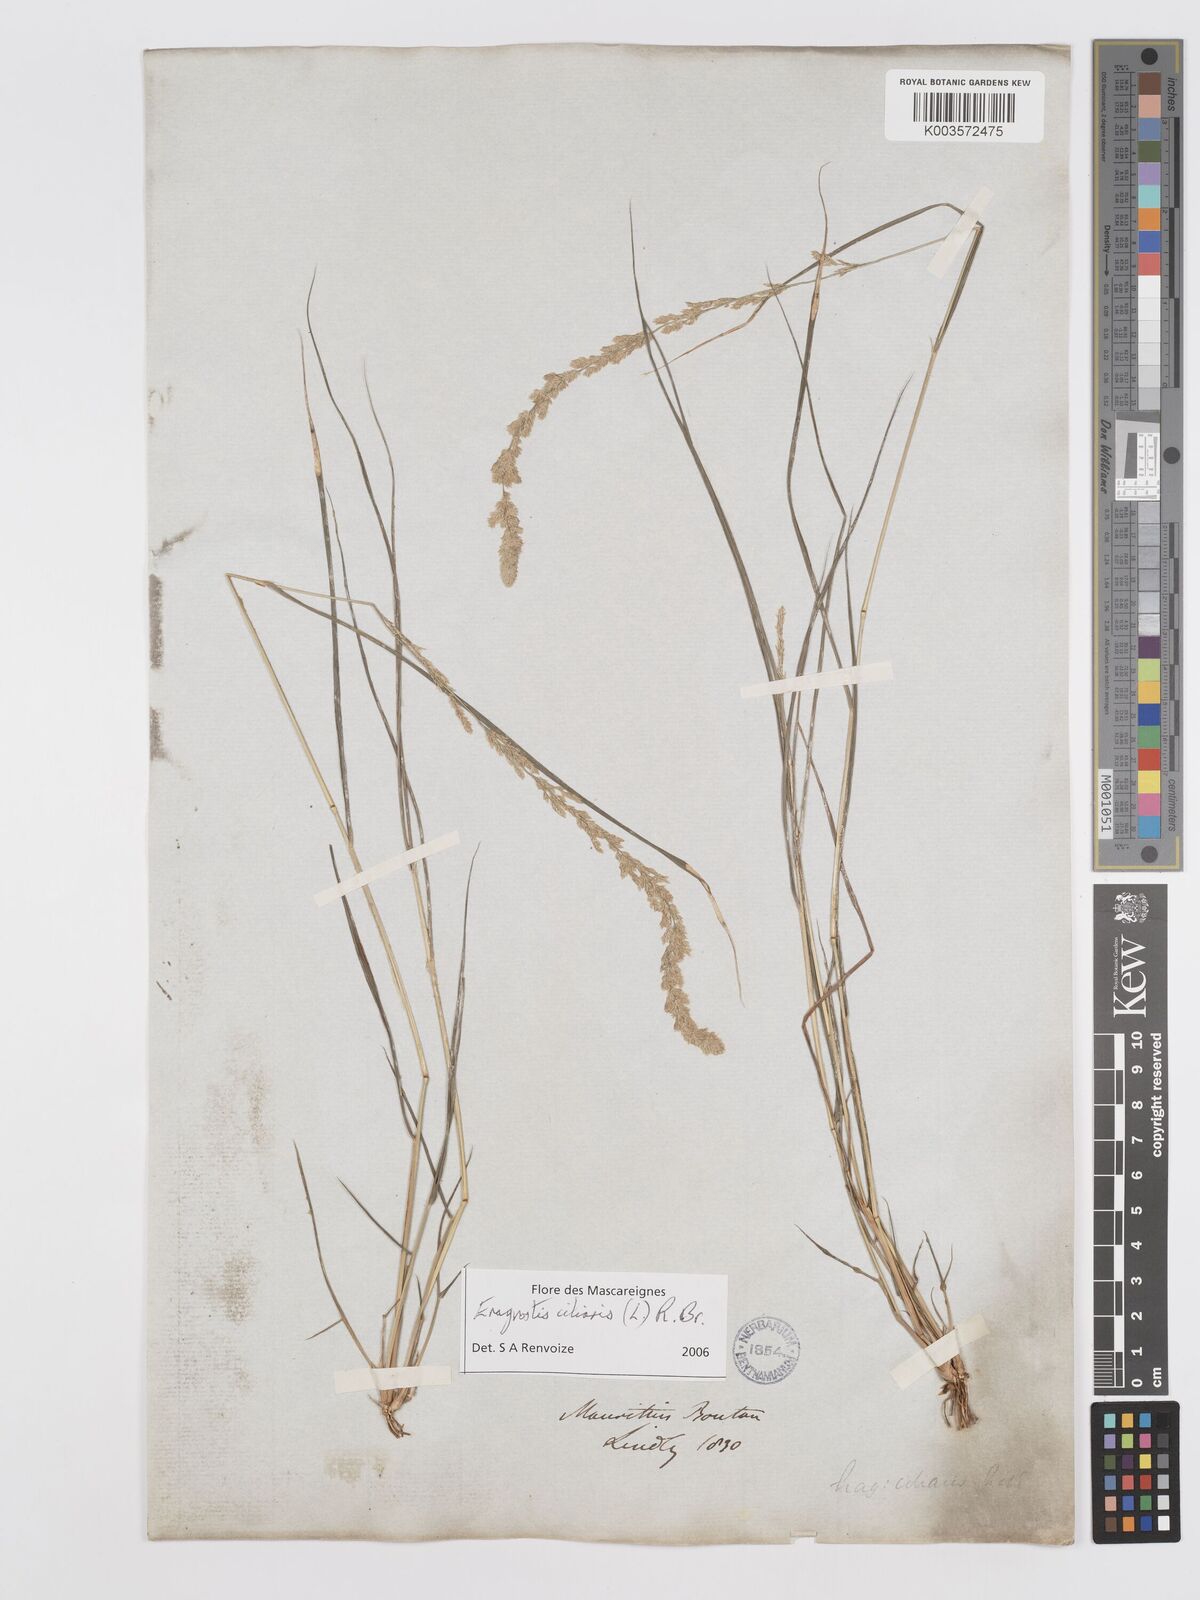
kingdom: Plantae
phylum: Tracheophyta
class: Liliopsida
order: Poales
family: Poaceae
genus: Eragrostis
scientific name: Eragrostis ciliaris
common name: Gophertail lovegrass
